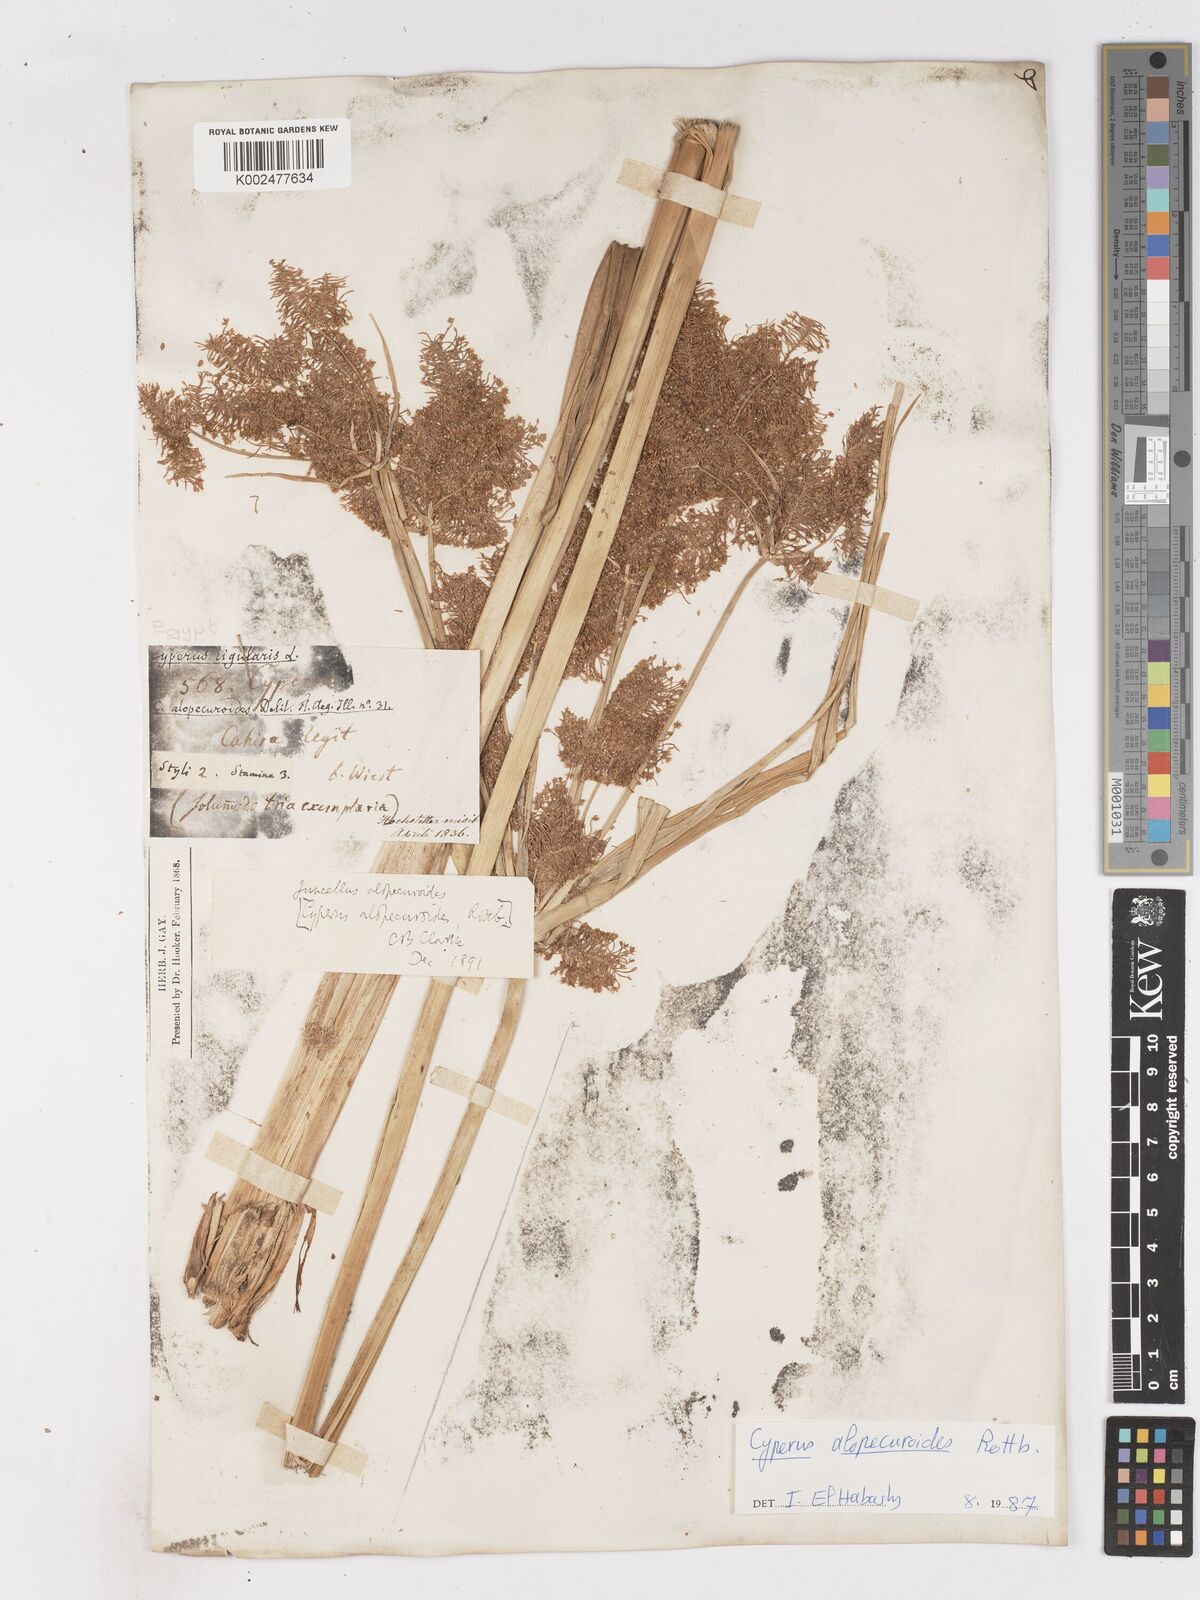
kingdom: Plantae
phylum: Tracheophyta
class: Liliopsida
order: Poales
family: Cyperaceae
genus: Cyperus
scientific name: Cyperus alopecuroides
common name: Foxtail flatsedge
